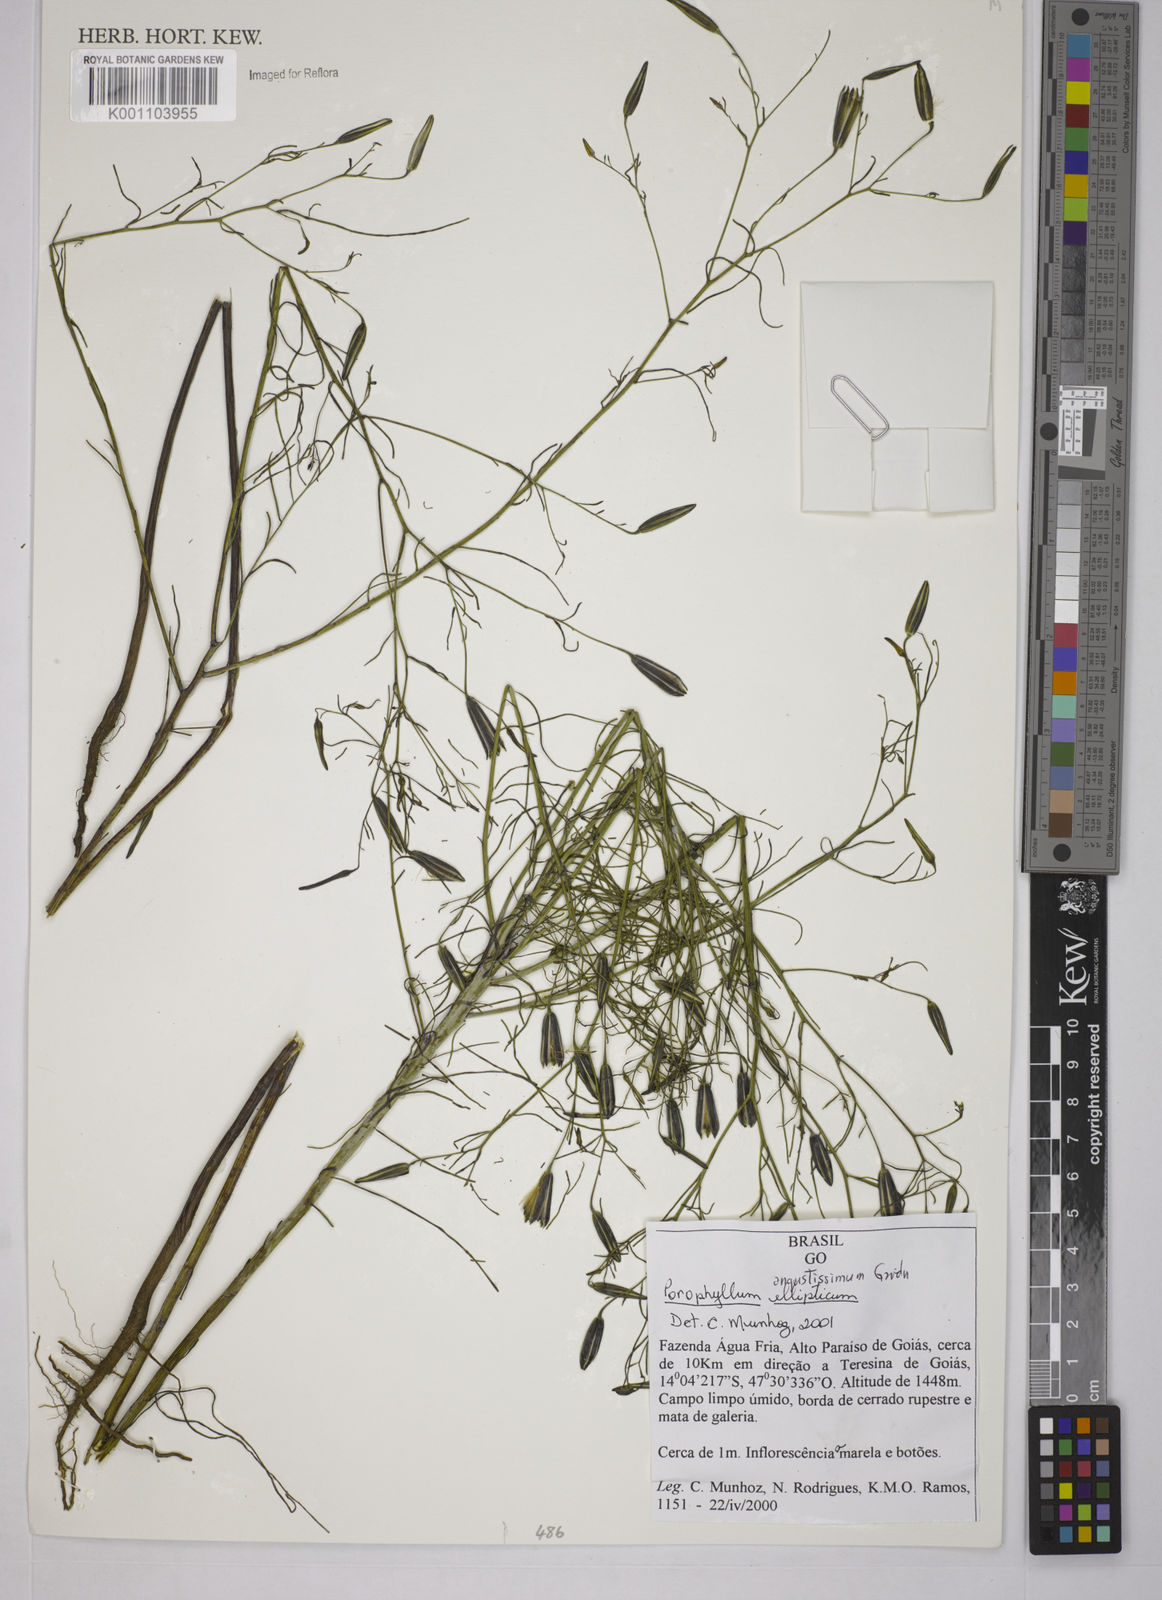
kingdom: Plantae
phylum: Tracheophyta
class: Magnoliopsida
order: Asterales
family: Asteraceae
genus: Porophyllum
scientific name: Porophyllum angustissimum
